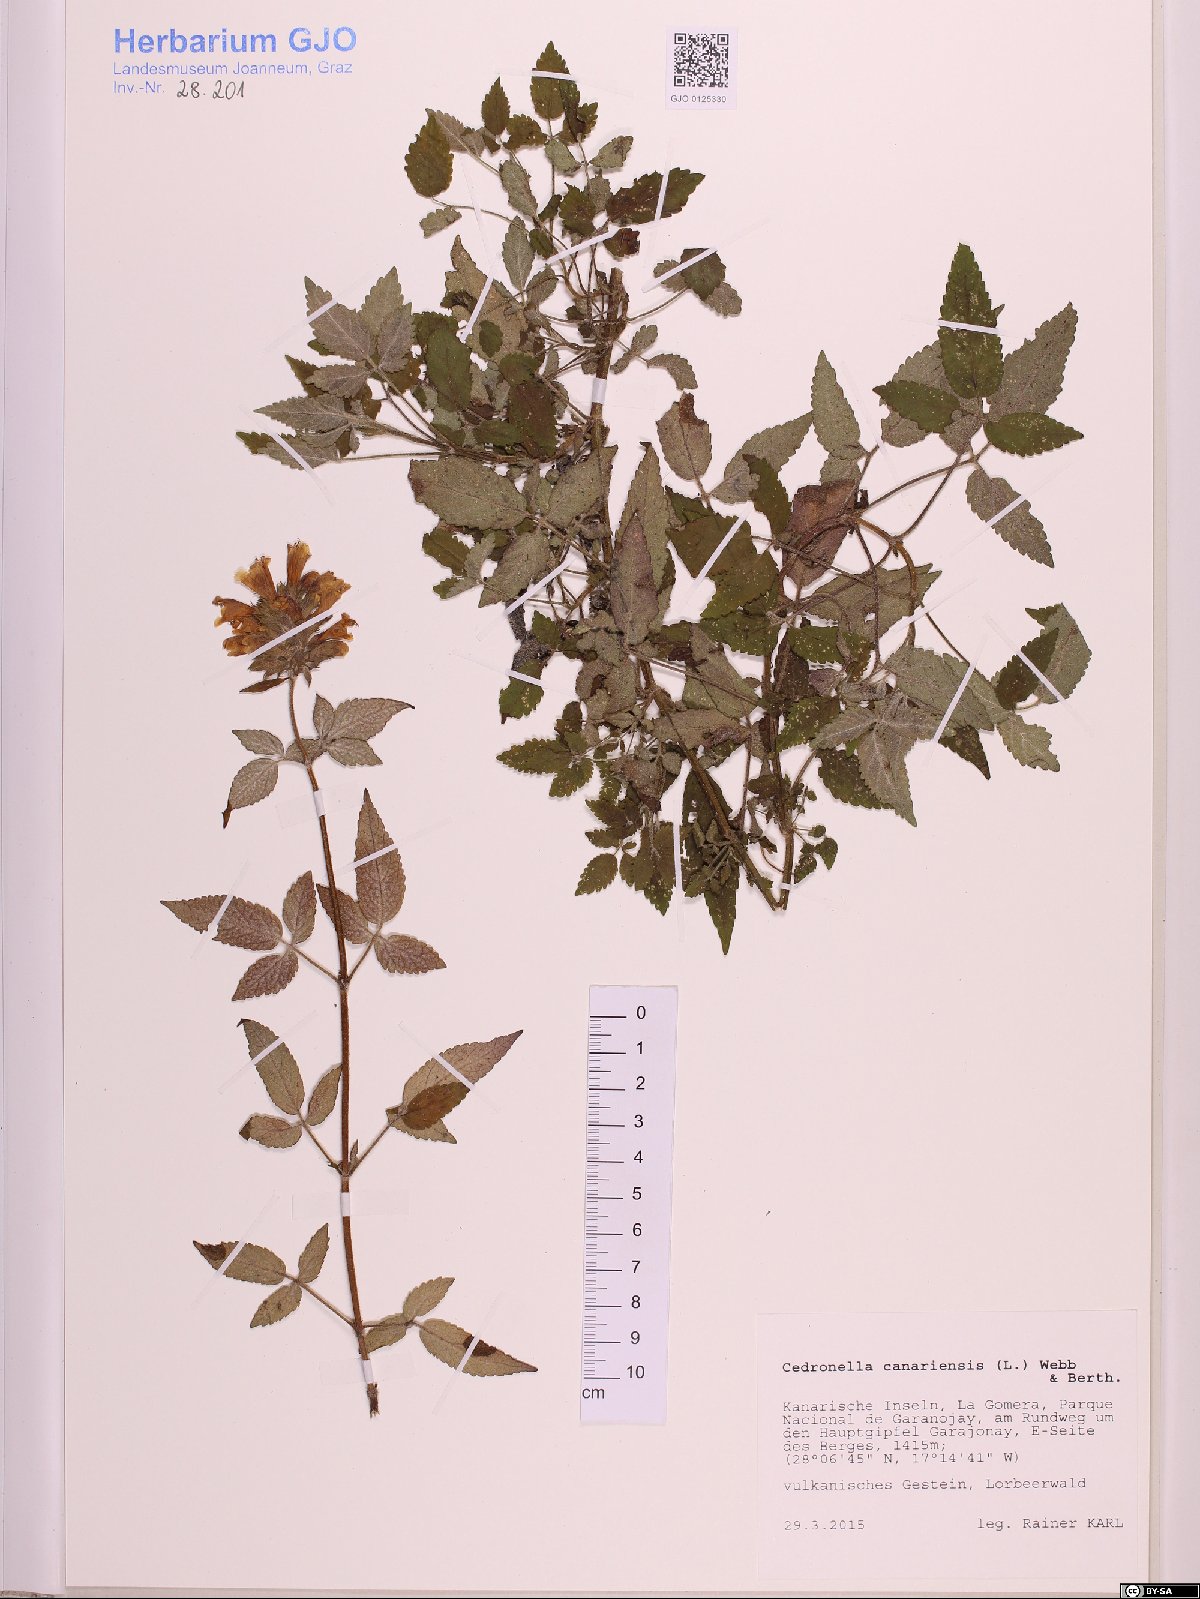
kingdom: Plantae
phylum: Tracheophyta
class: Magnoliopsida
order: Lamiales
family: Lamiaceae
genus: Cedronella
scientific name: Cedronella canariensis
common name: Canary islands balm
